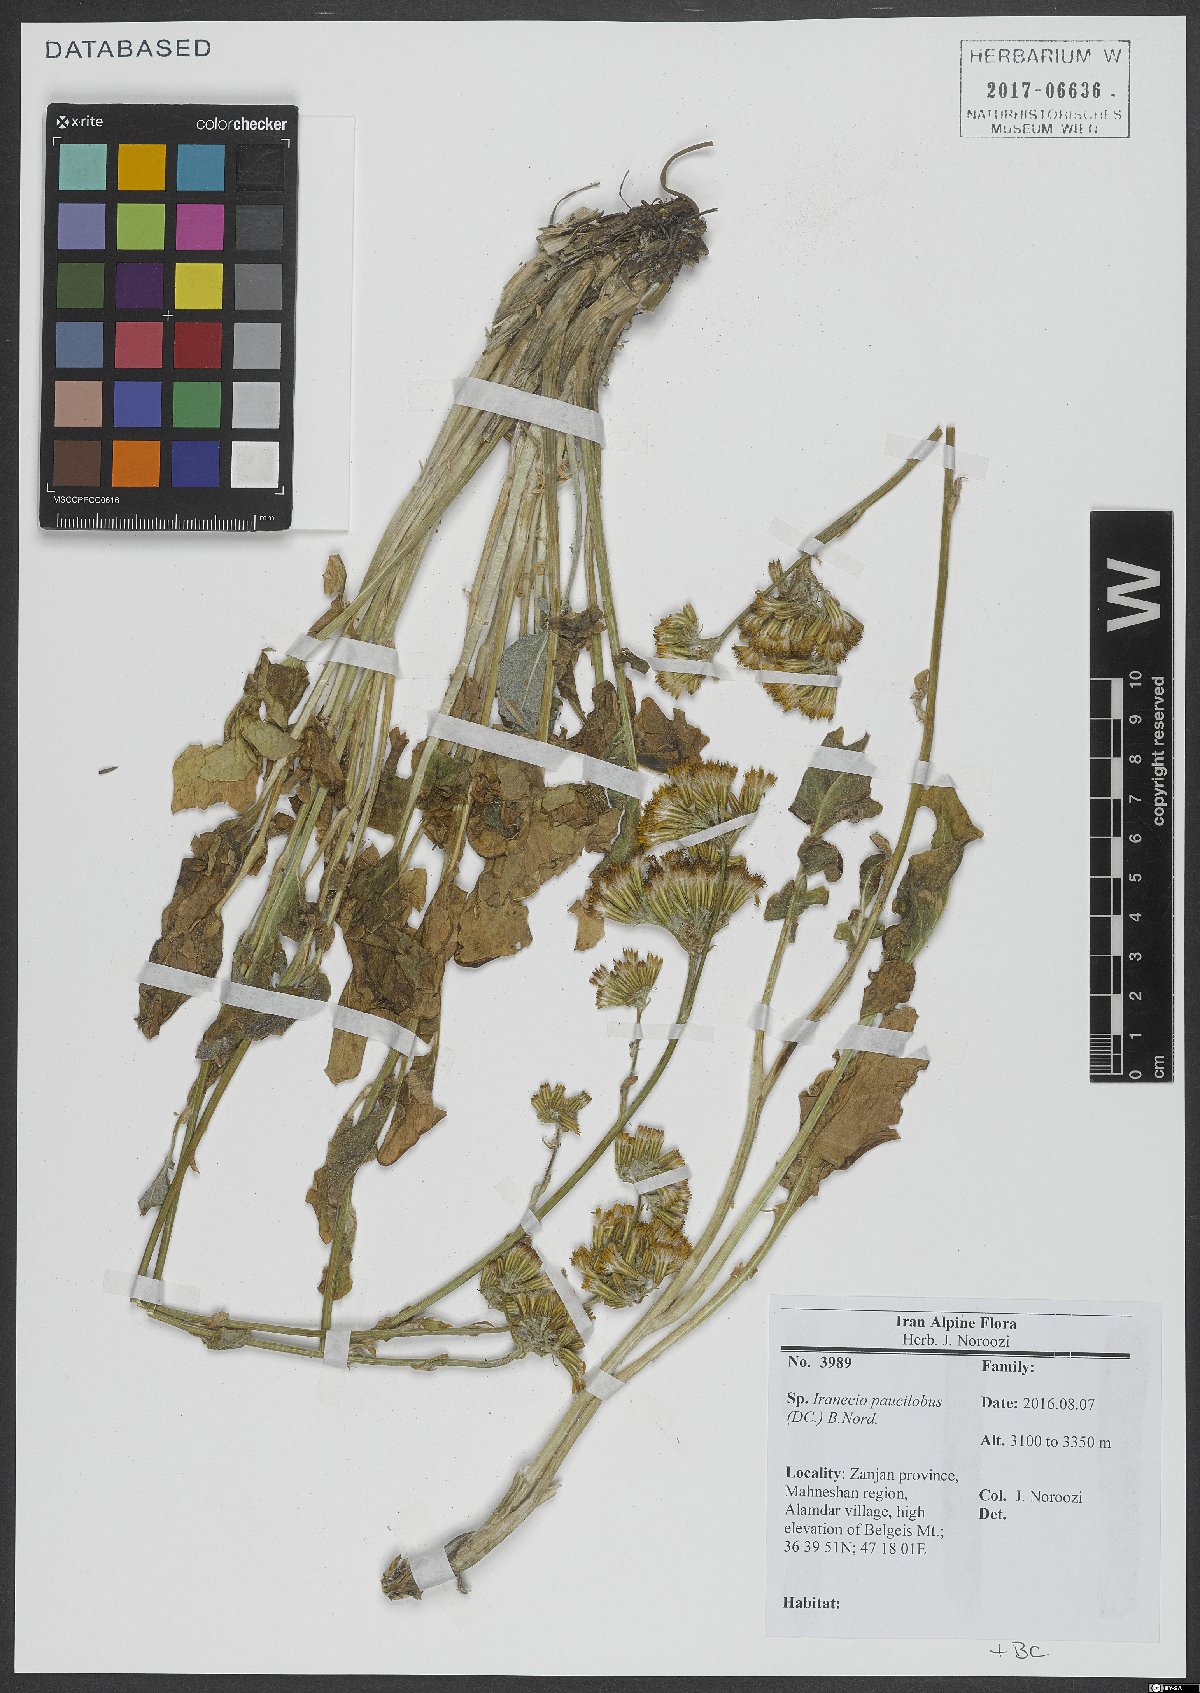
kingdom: Plantae
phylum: Tracheophyta
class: Magnoliopsida
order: Asterales
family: Asteraceae
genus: Iranecio
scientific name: Iranecio paucilobus
